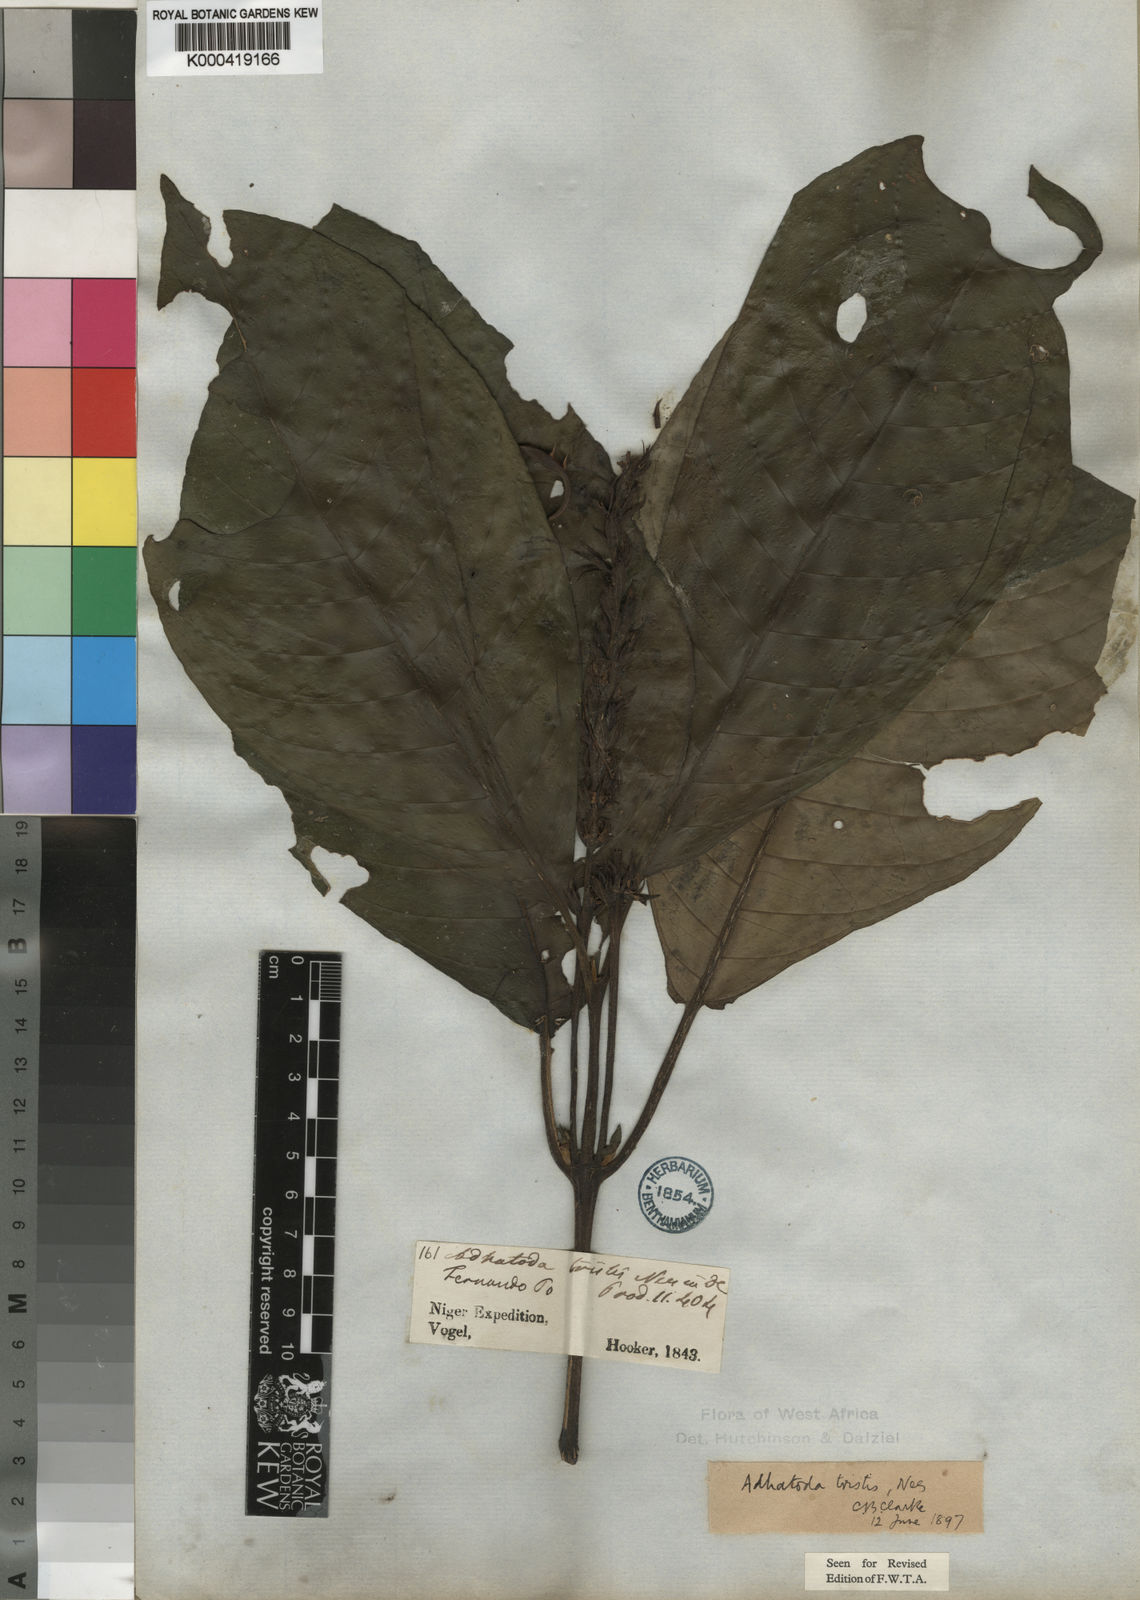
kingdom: Plantae
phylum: Tracheophyta
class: Magnoliopsida
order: Lamiales
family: Acanthaceae
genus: Justicia
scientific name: Justicia tristis
